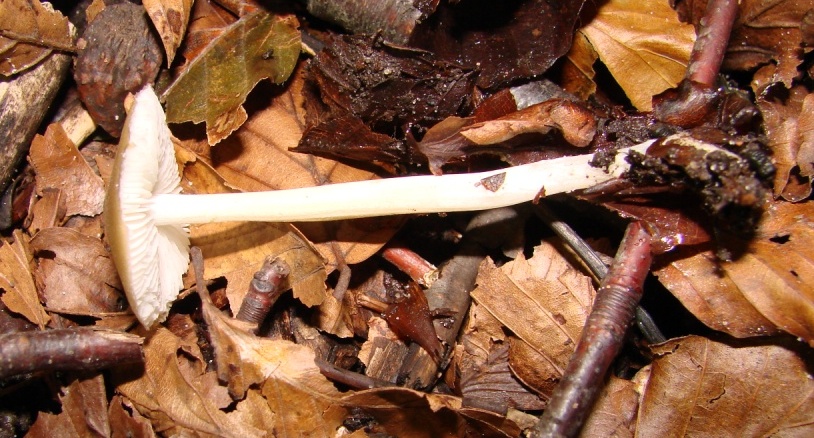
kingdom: Fungi
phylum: Basidiomycota
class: Agaricomycetes
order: Agaricales
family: Porotheleaceae
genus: Hydropodia
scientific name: Hydropodia subalpina
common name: vår-fnugfod
